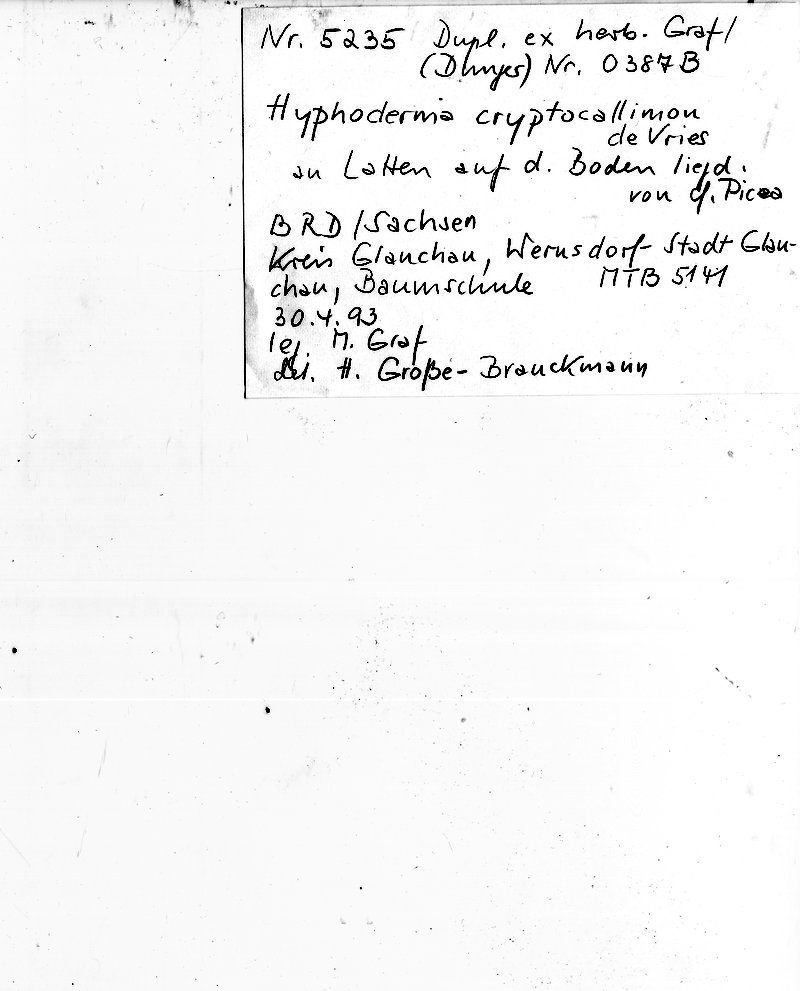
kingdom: Plantae
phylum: Tracheophyta
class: Pinopsida
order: Pinales
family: Pinaceae
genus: Picea
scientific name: Picea
